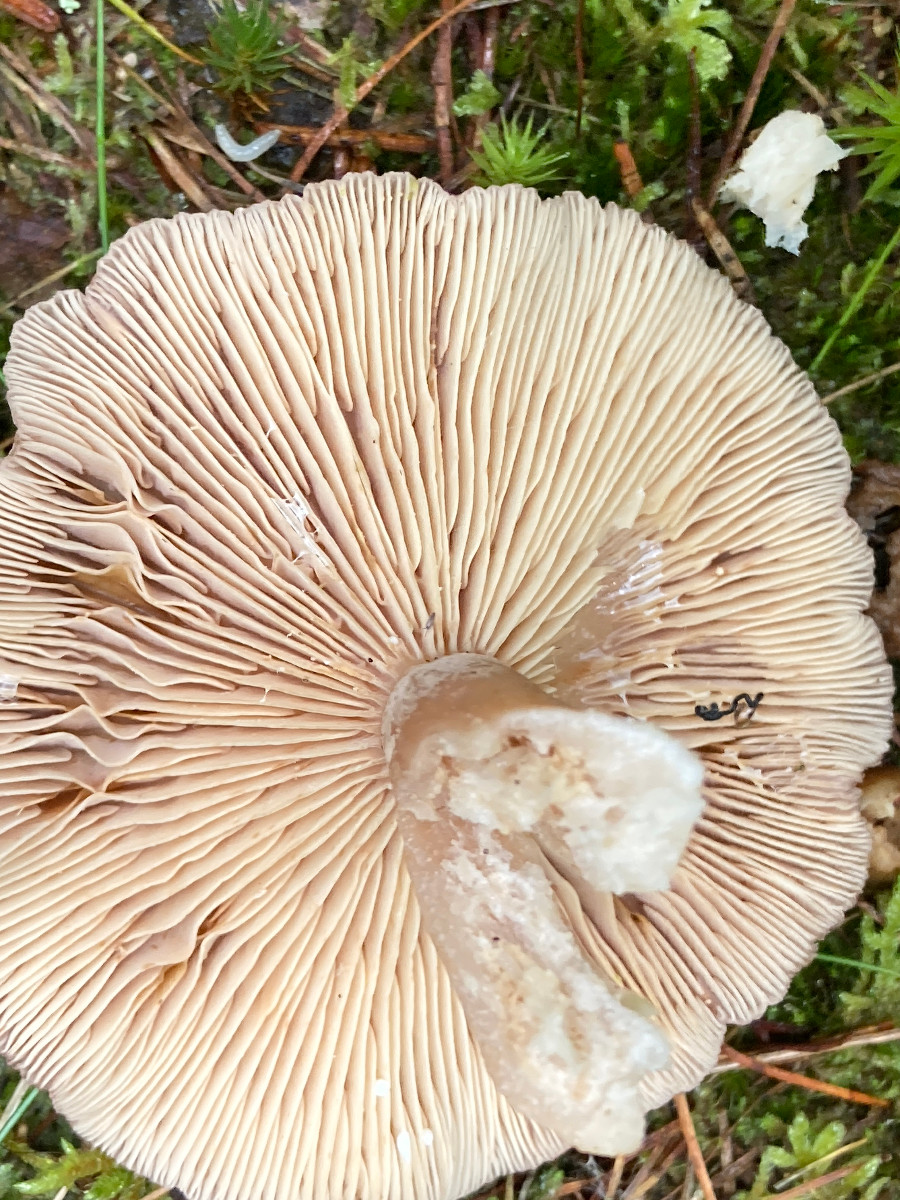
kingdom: Fungi
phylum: Basidiomycota
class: Agaricomycetes
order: Russulales
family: Russulaceae
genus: Lactarius
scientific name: Lactarius glyciosmus
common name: kokos-mælkehat
